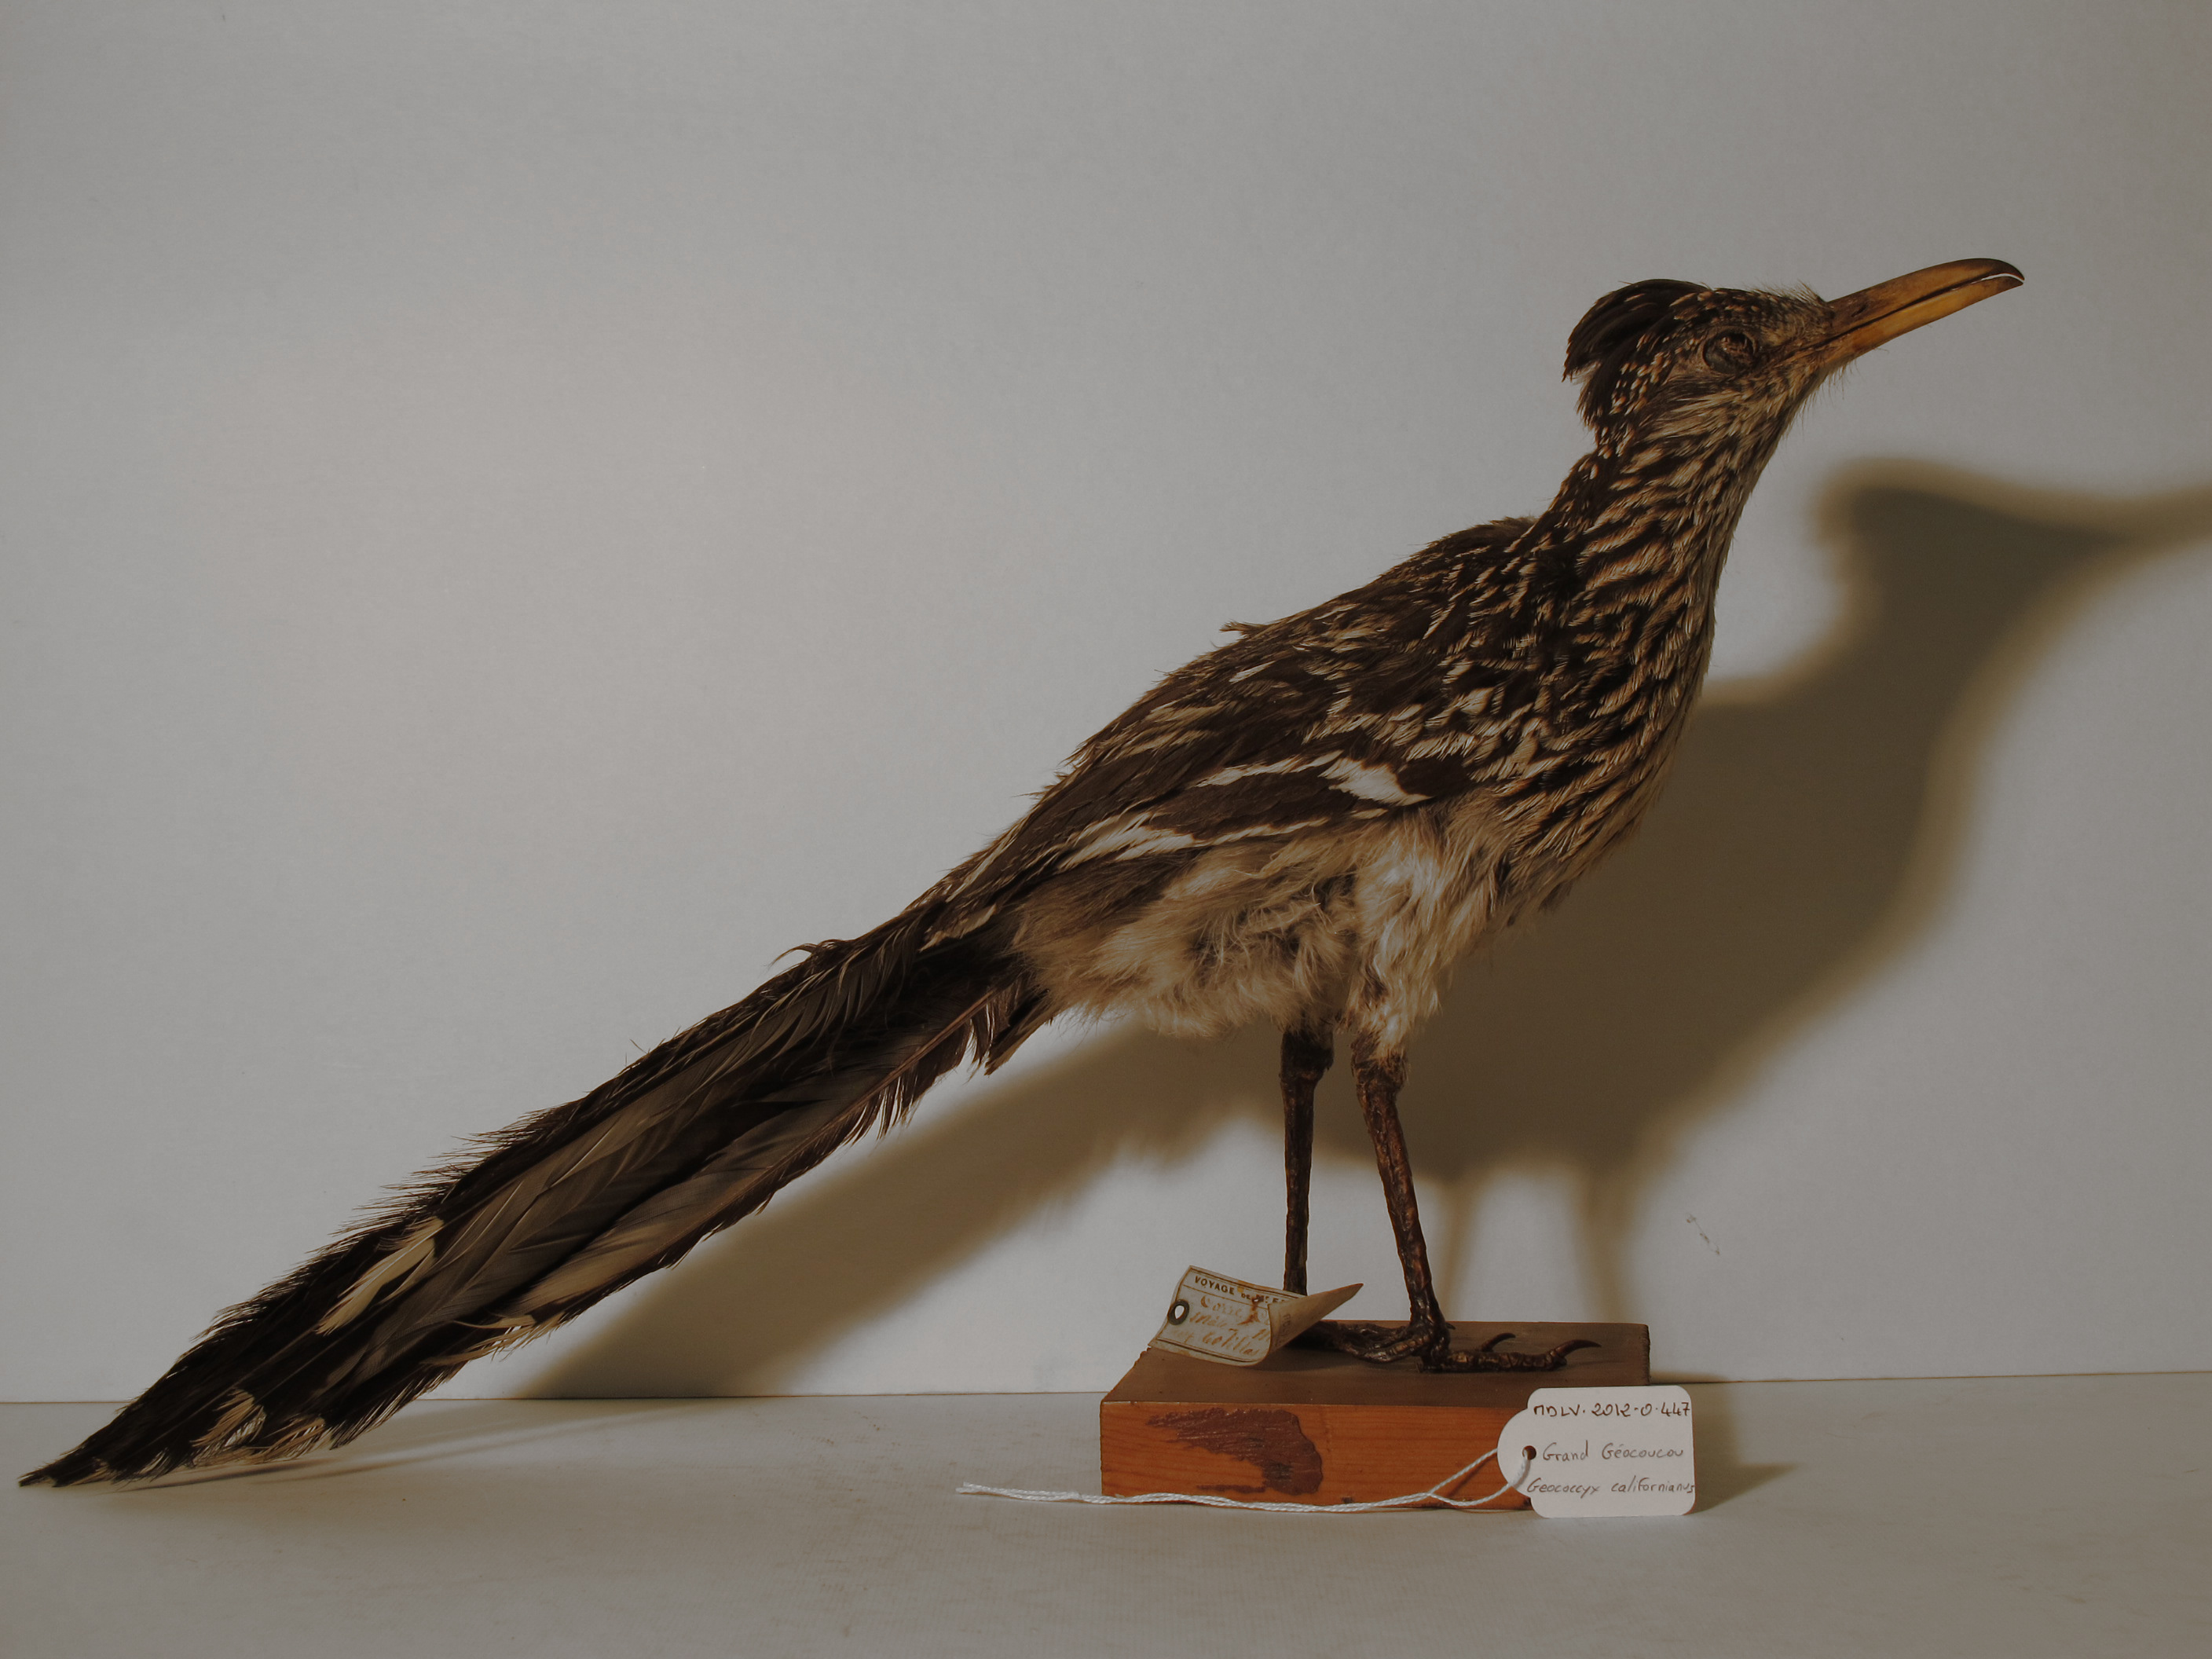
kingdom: Animalia
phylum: Chordata
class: Aves
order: Cuculiformes
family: Cuculidae
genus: Geococcyx
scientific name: Geococcyx californianus
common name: Greater Roadrunner
